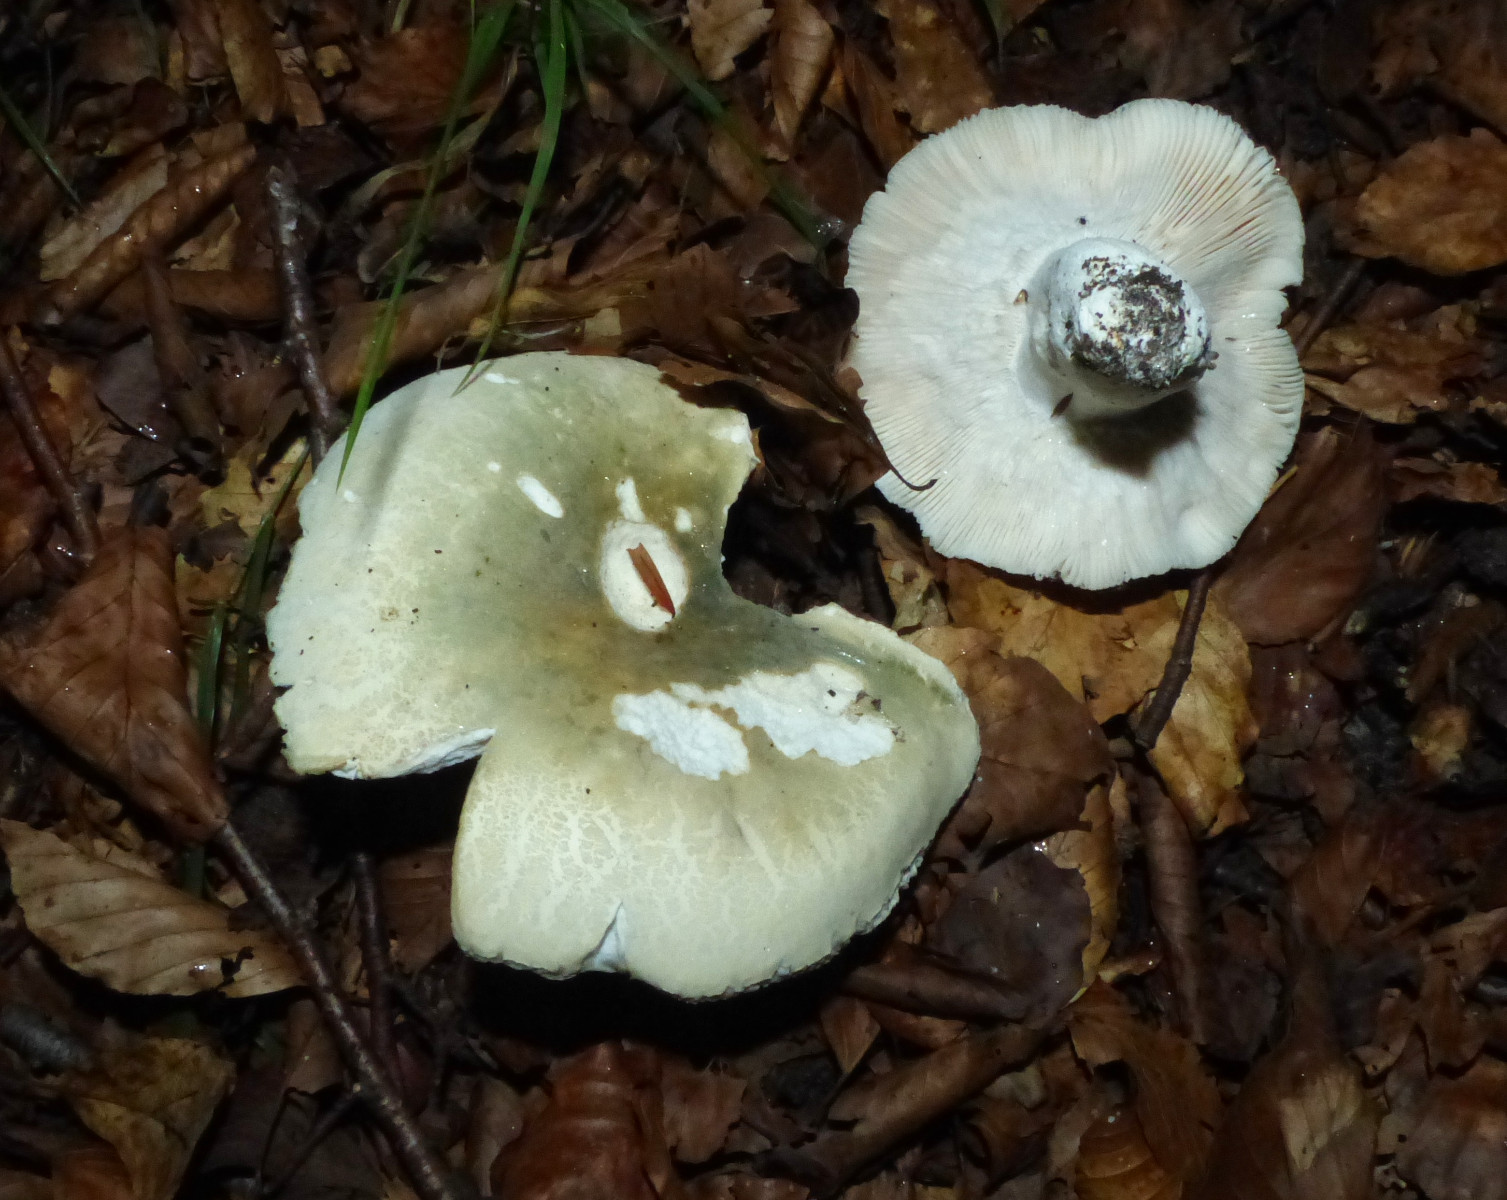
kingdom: Fungi
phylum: Basidiomycota
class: Agaricomycetes
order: Russulales
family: Russulaceae
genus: Russula
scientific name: Russula virescens
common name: spanskgrøn skørhat
